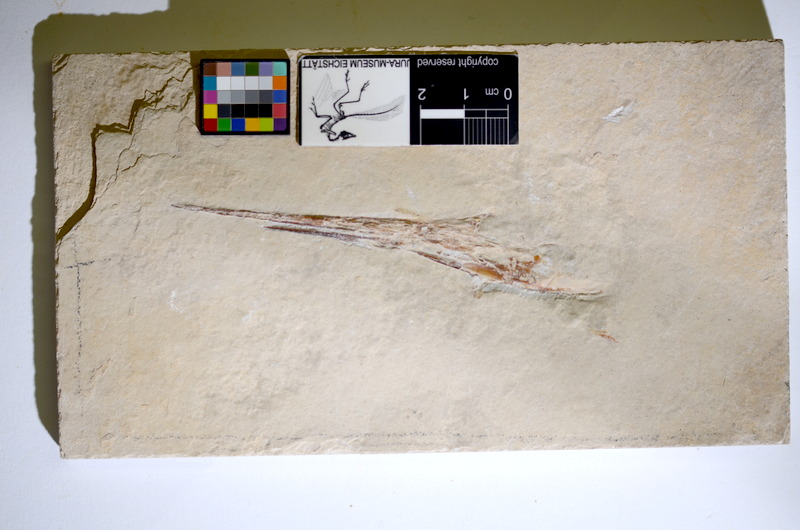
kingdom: Animalia
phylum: Chordata
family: Aspidorhynchidae
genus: Belonostomus
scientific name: Belonostomus tenuirostris
